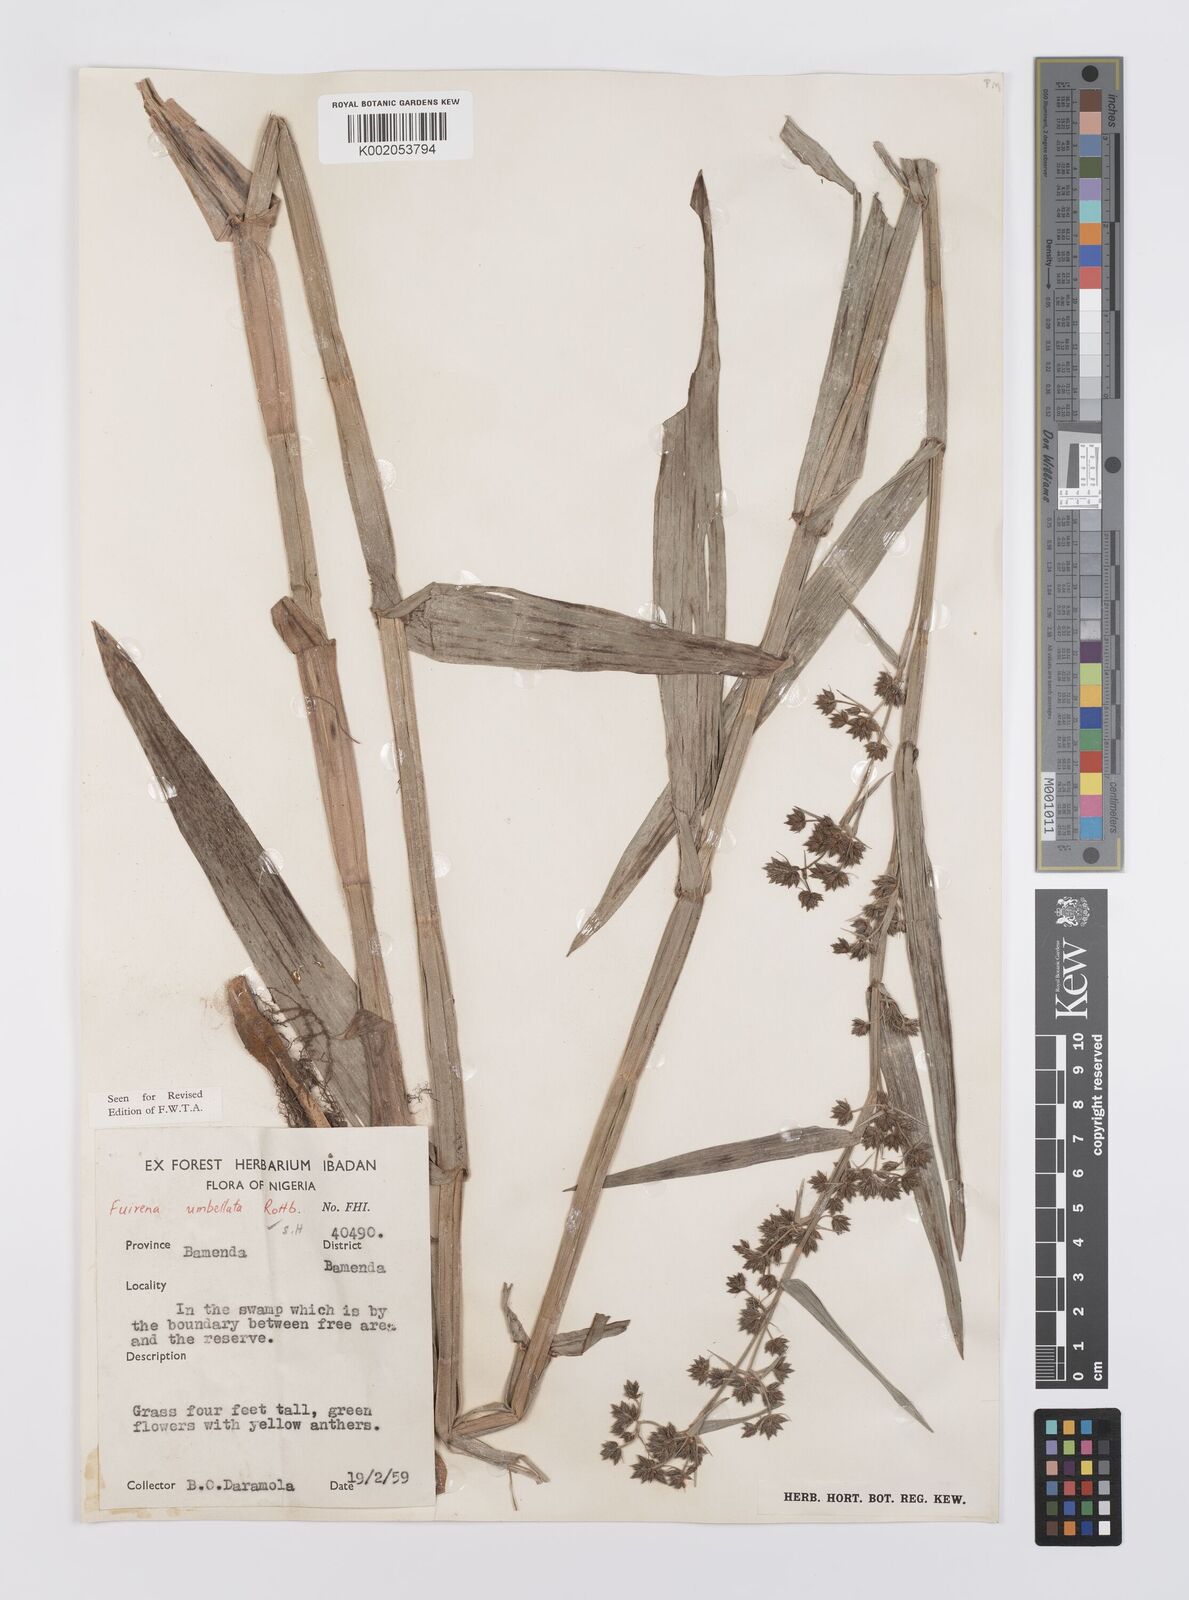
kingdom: Plantae
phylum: Tracheophyta
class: Liliopsida
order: Poales
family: Cyperaceae
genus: Fuirena
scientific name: Fuirena umbellata
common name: Yefen
